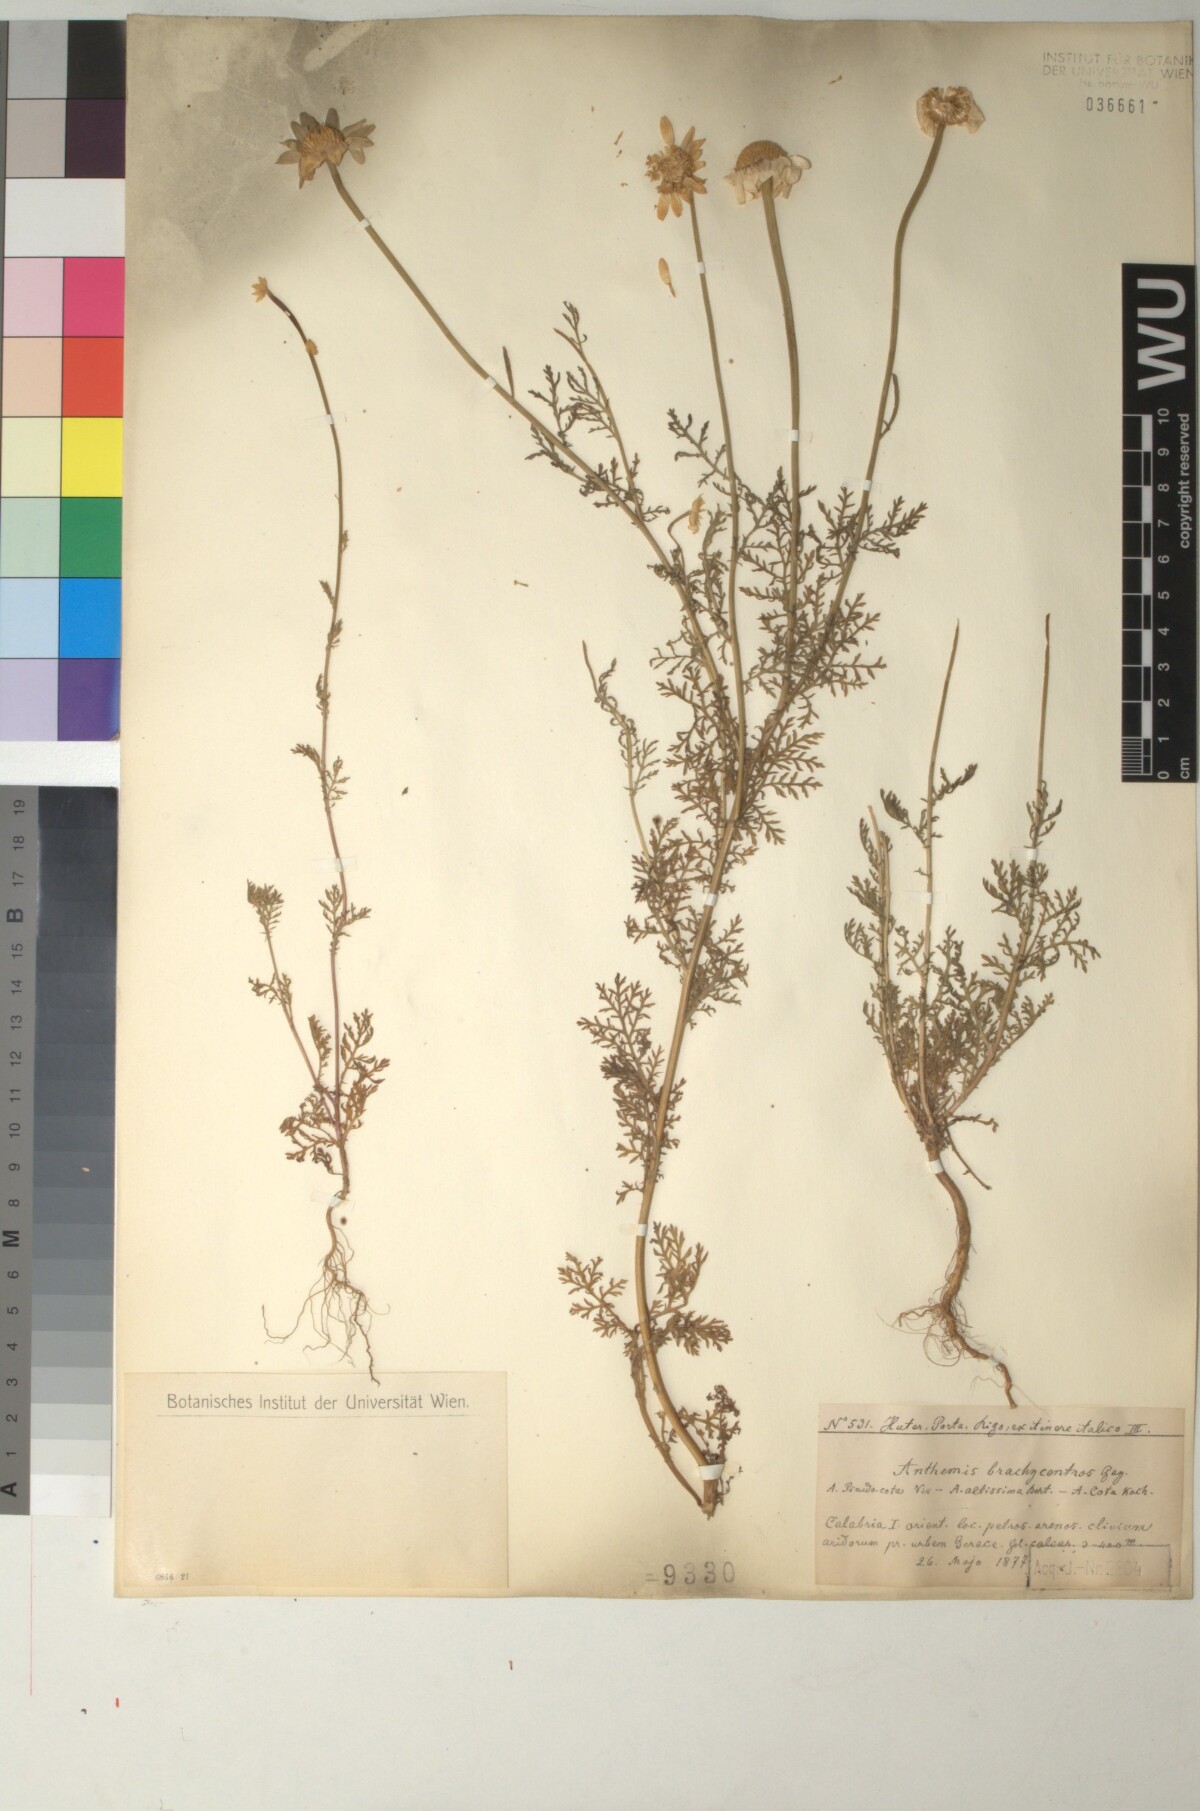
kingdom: Plantae
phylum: Tracheophyta
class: Magnoliopsida
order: Asterales
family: Asteraceae
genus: Cota
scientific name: Cota segetalis
